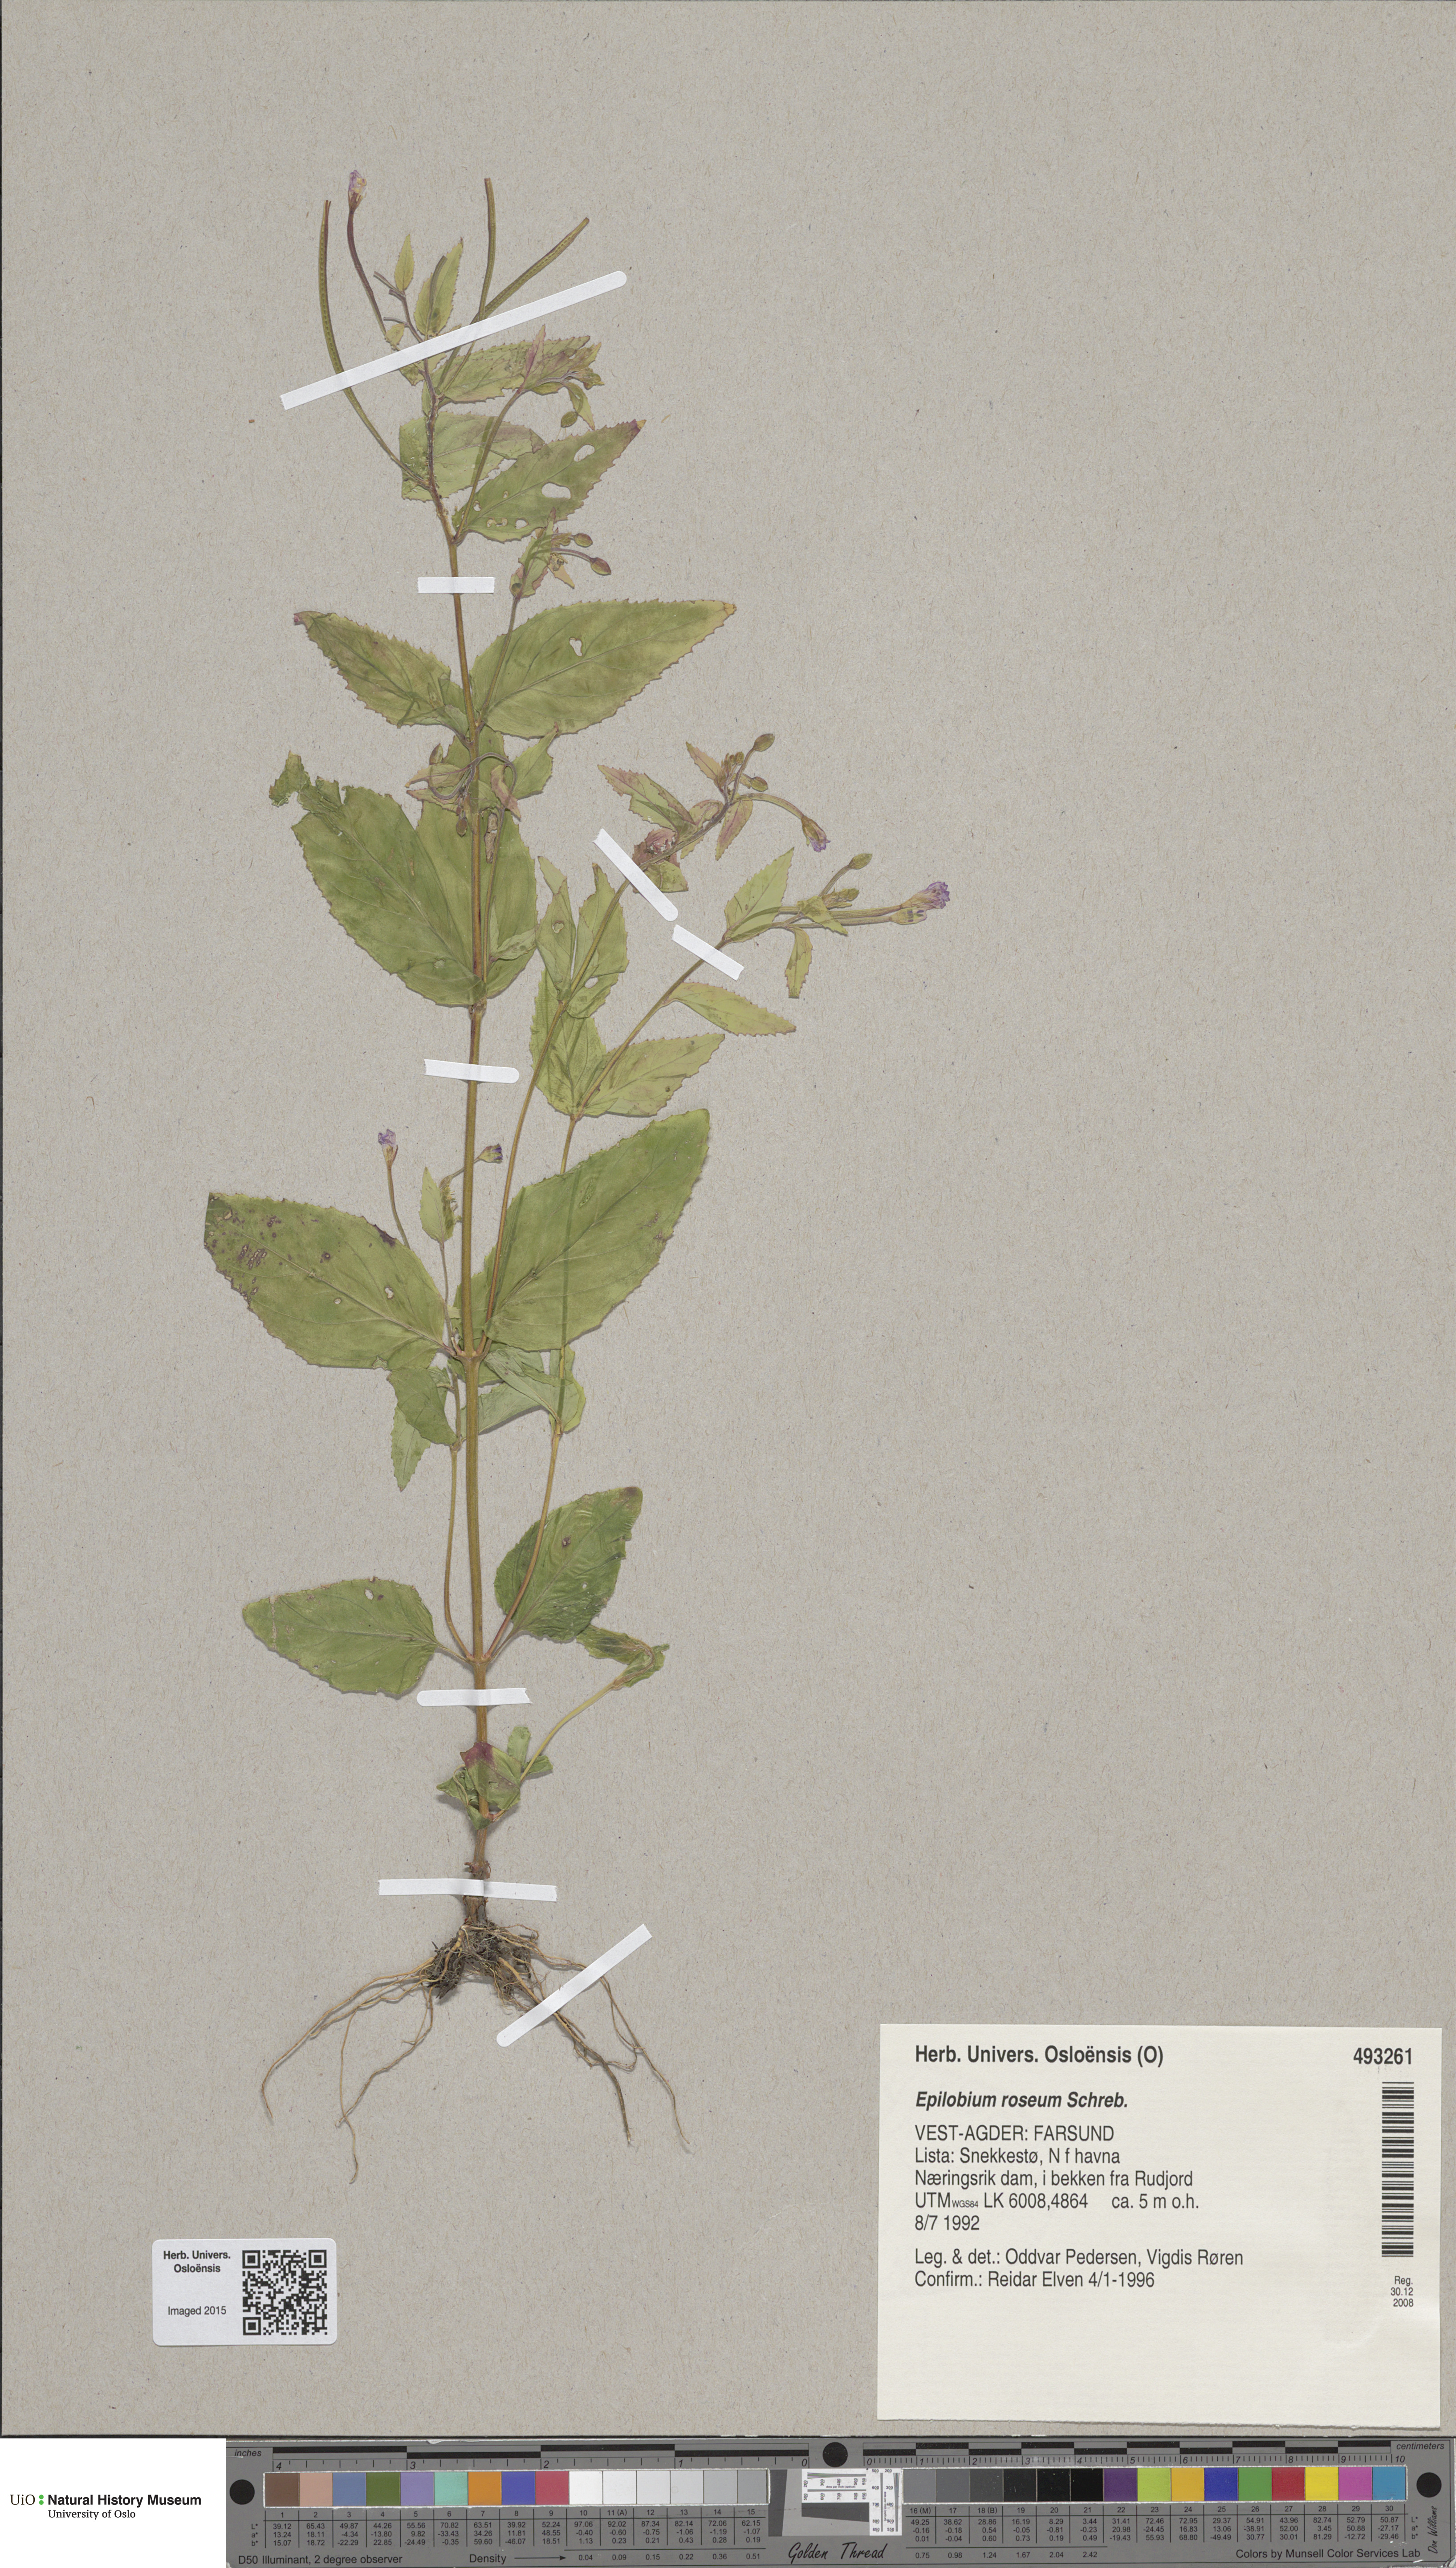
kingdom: Plantae
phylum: Tracheophyta
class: Magnoliopsida
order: Myrtales
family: Onagraceae
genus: Epilobium
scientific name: Epilobium roseum
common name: Pale willowherb
